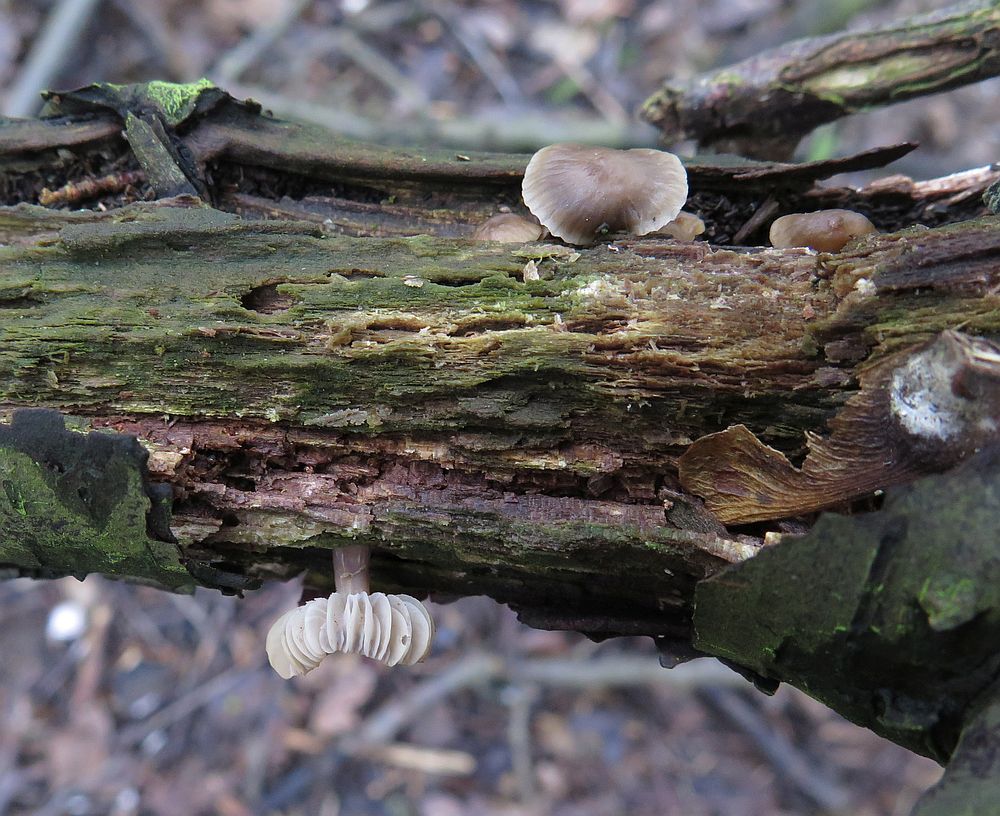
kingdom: Fungi
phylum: Basidiomycota
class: Agaricomycetes
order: Agaricales
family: Mycenaceae
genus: Mycena
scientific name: Mycena galericulata
